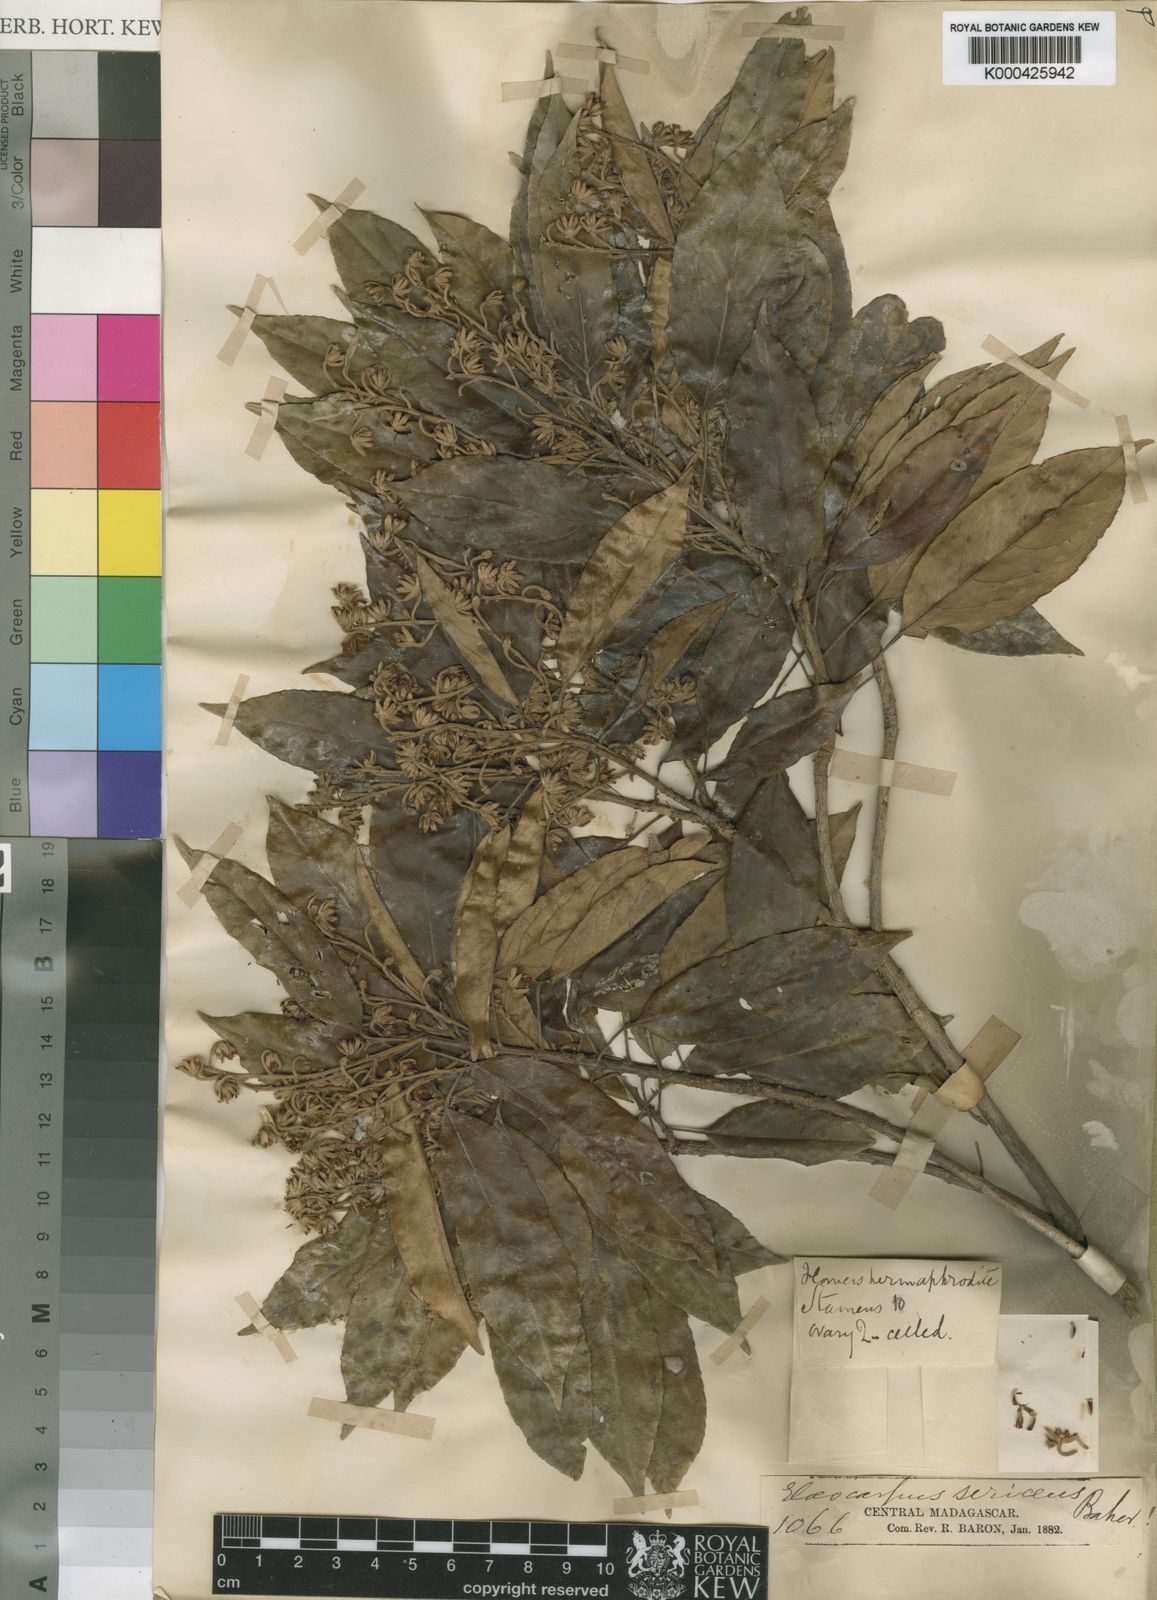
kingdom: Plantae
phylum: Tracheophyta
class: Magnoliopsida
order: Oxalidales
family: Elaeocarpaceae
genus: Elaeocarpus
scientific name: Elaeocarpus subserratus
